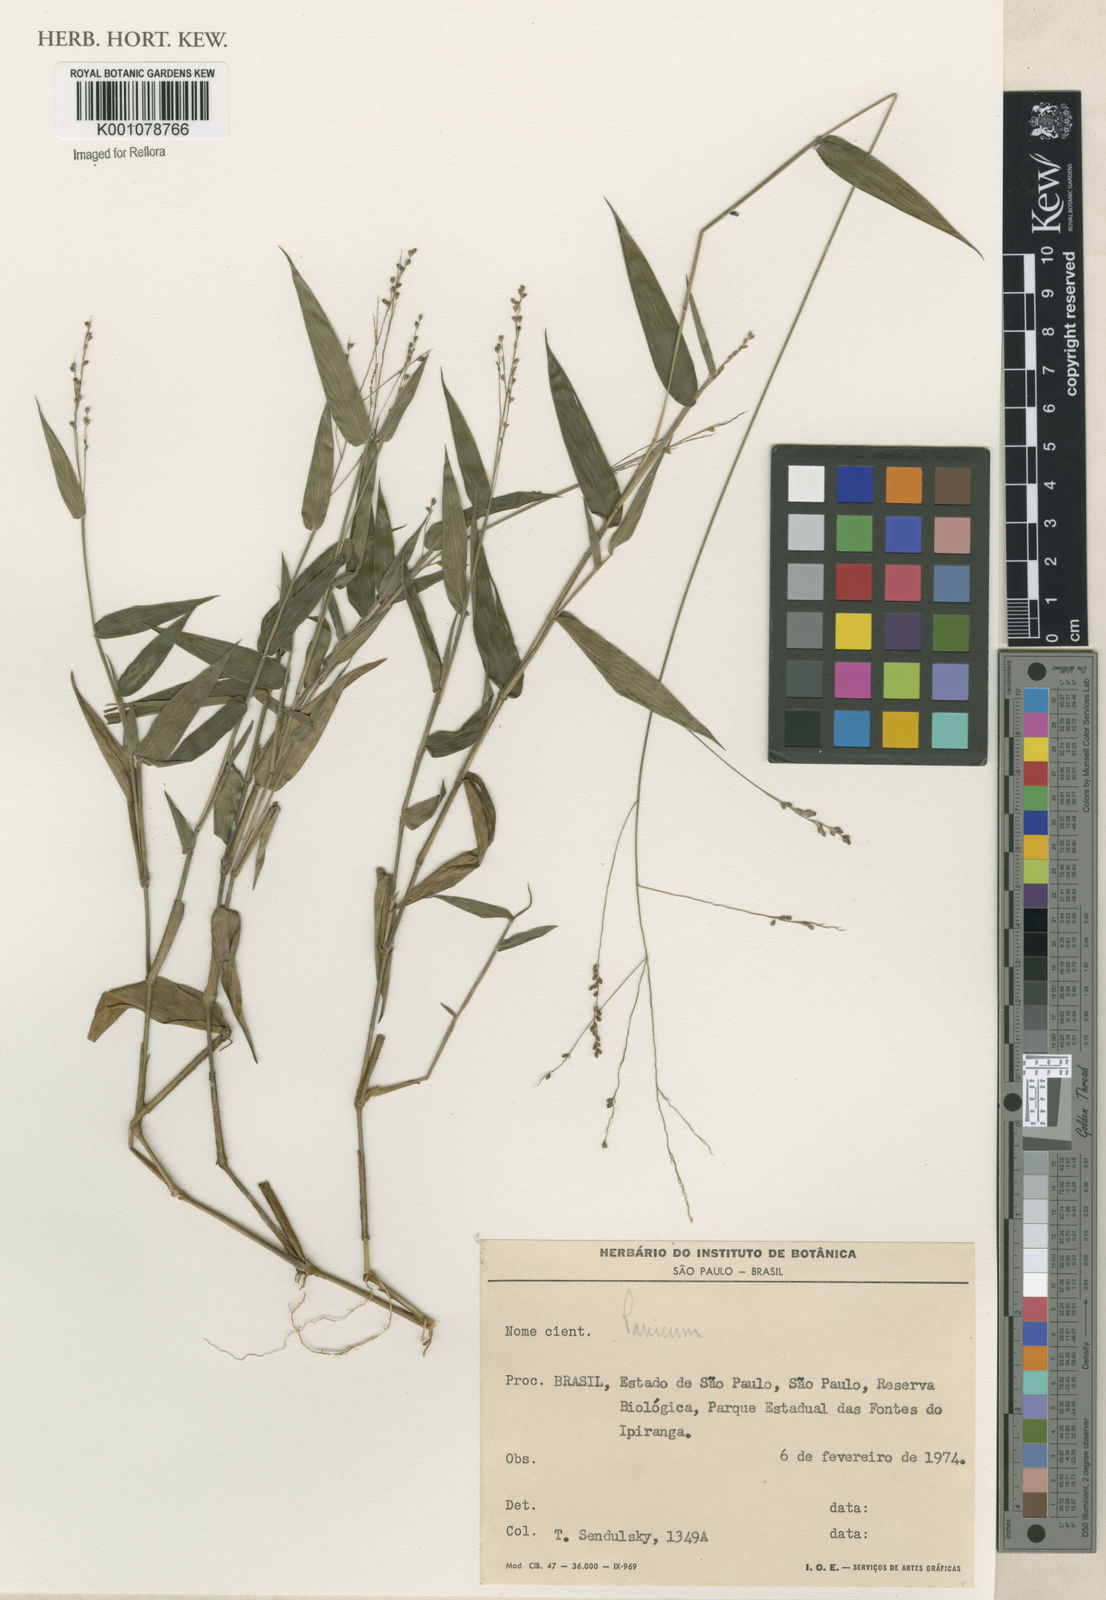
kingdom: Plantae
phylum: Tracheophyta
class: Liliopsida
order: Poales
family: Poaceae
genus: Panicum
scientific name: Panicum
